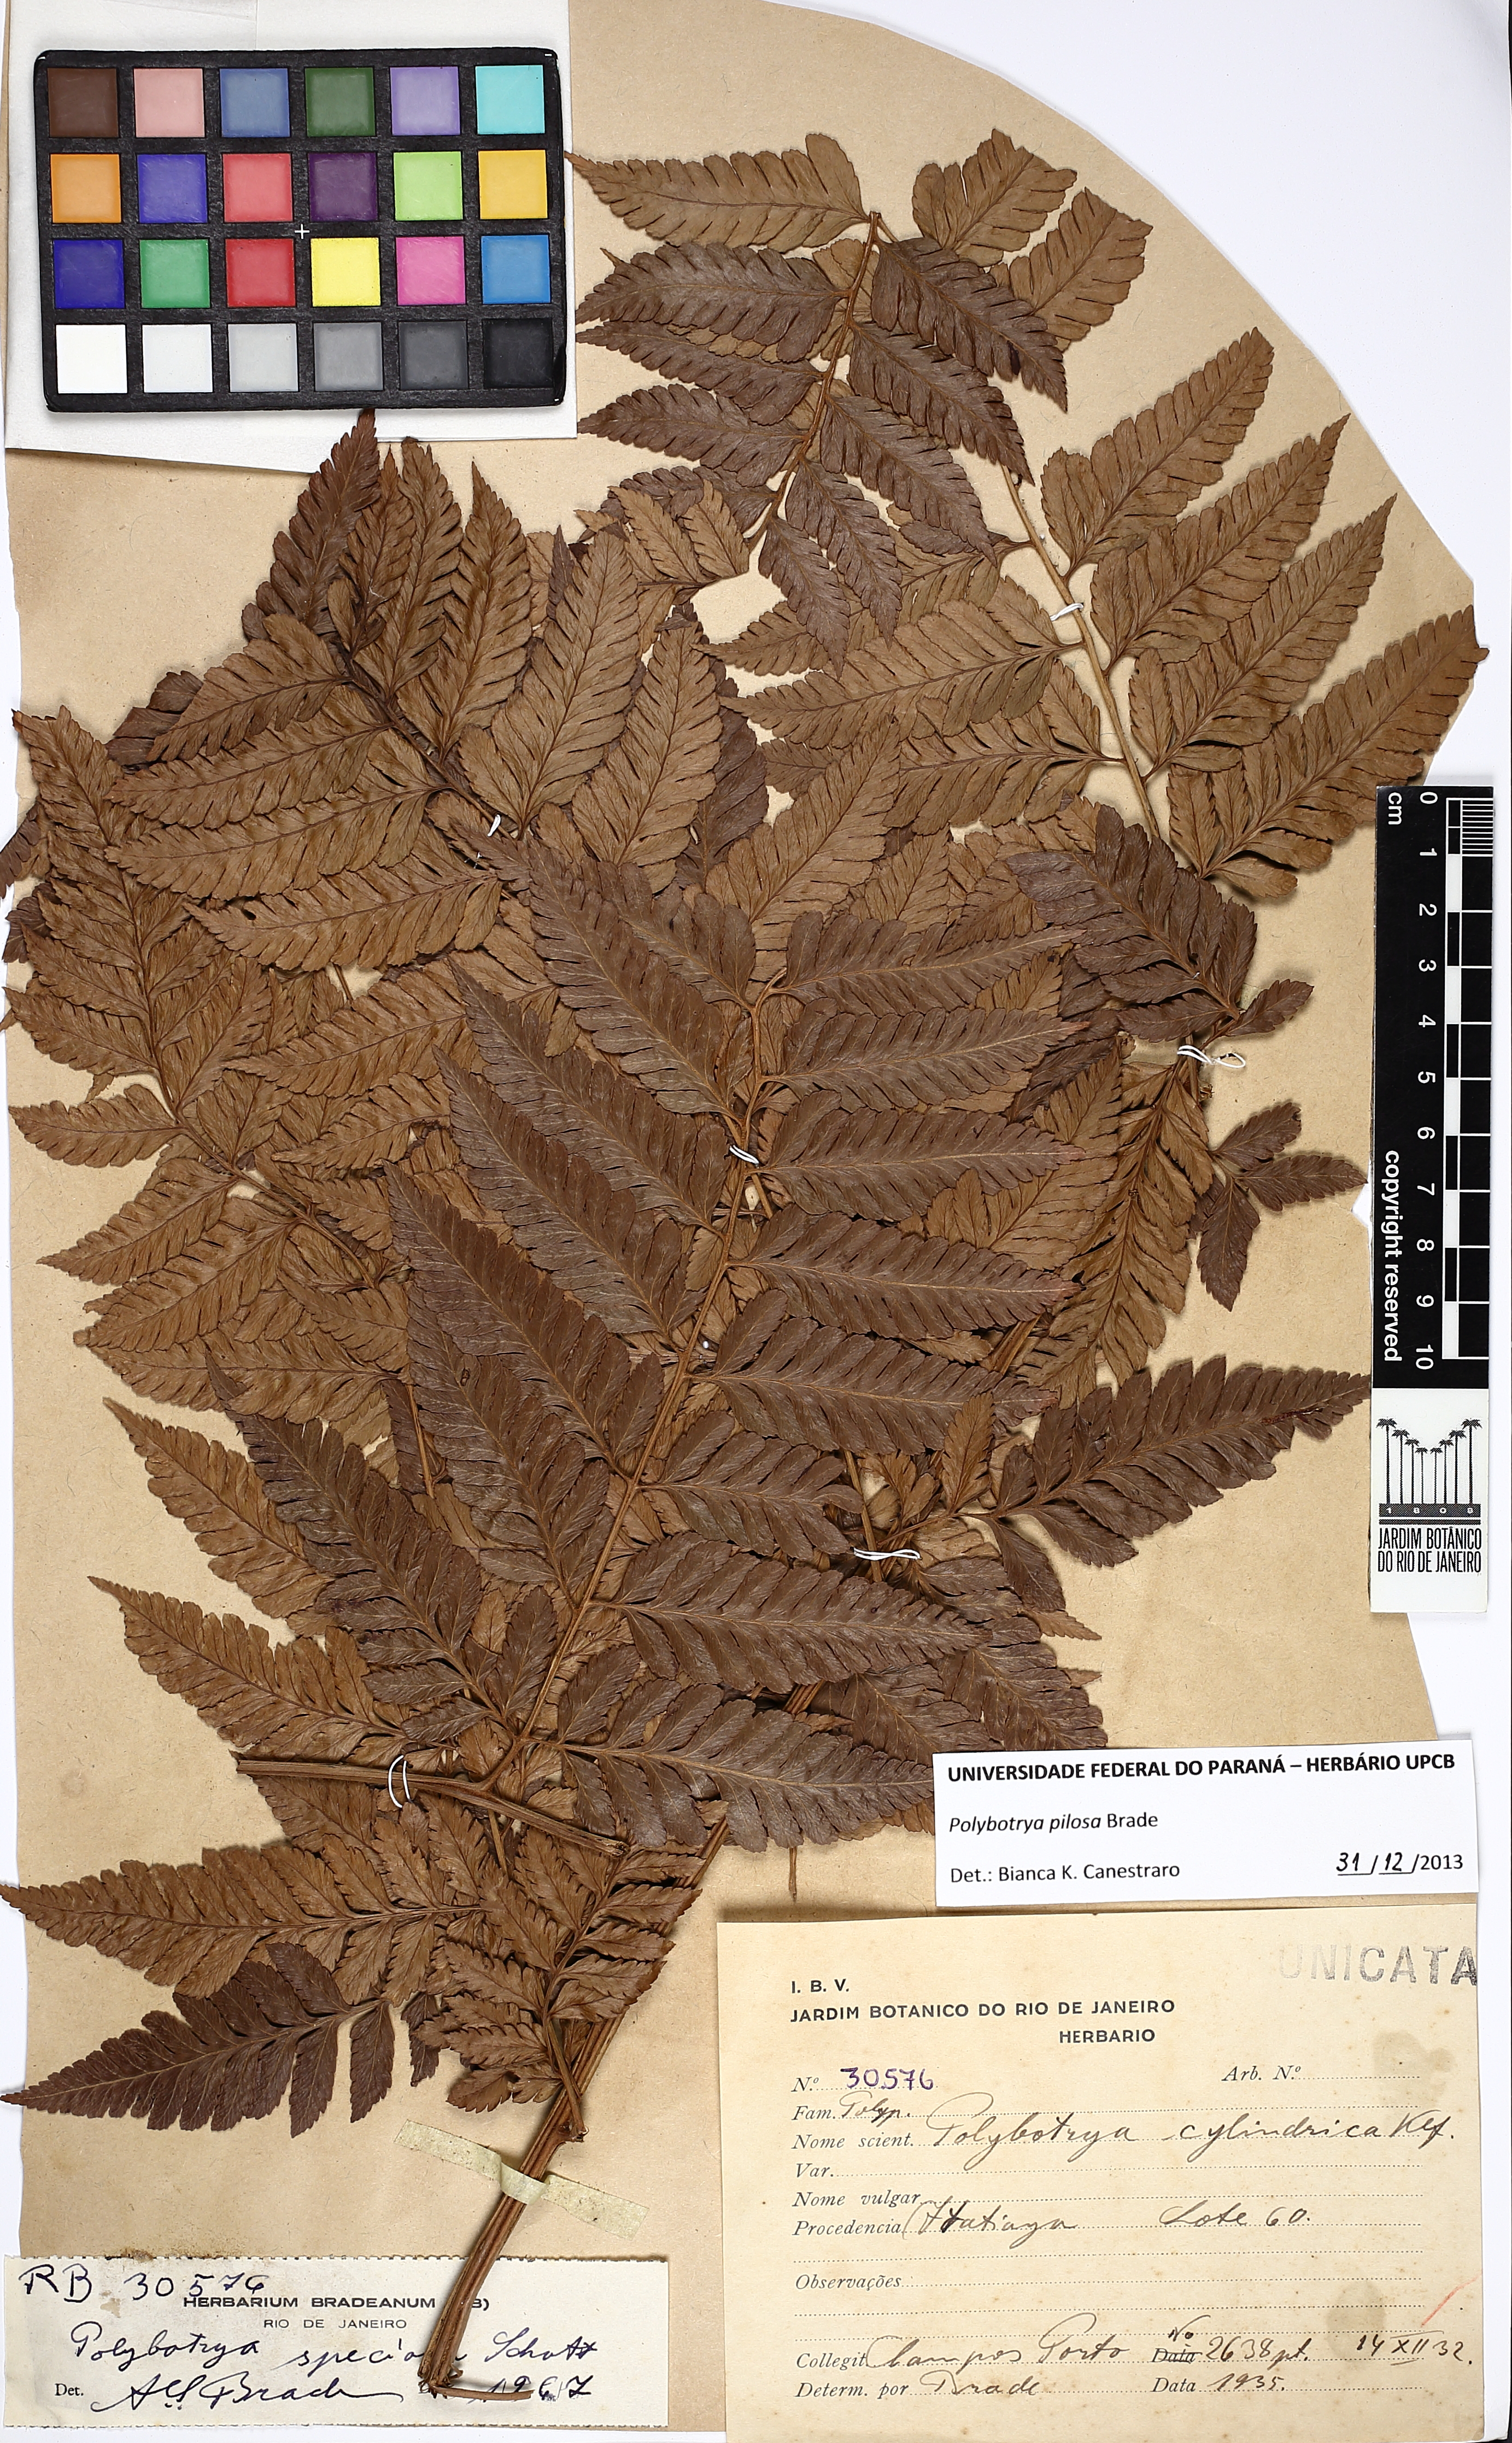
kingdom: Plantae
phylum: Tracheophyta
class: Polypodiopsida
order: Polypodiales
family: Dryopteridaceae
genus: Polybotrya
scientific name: Polybotrya pilosa
